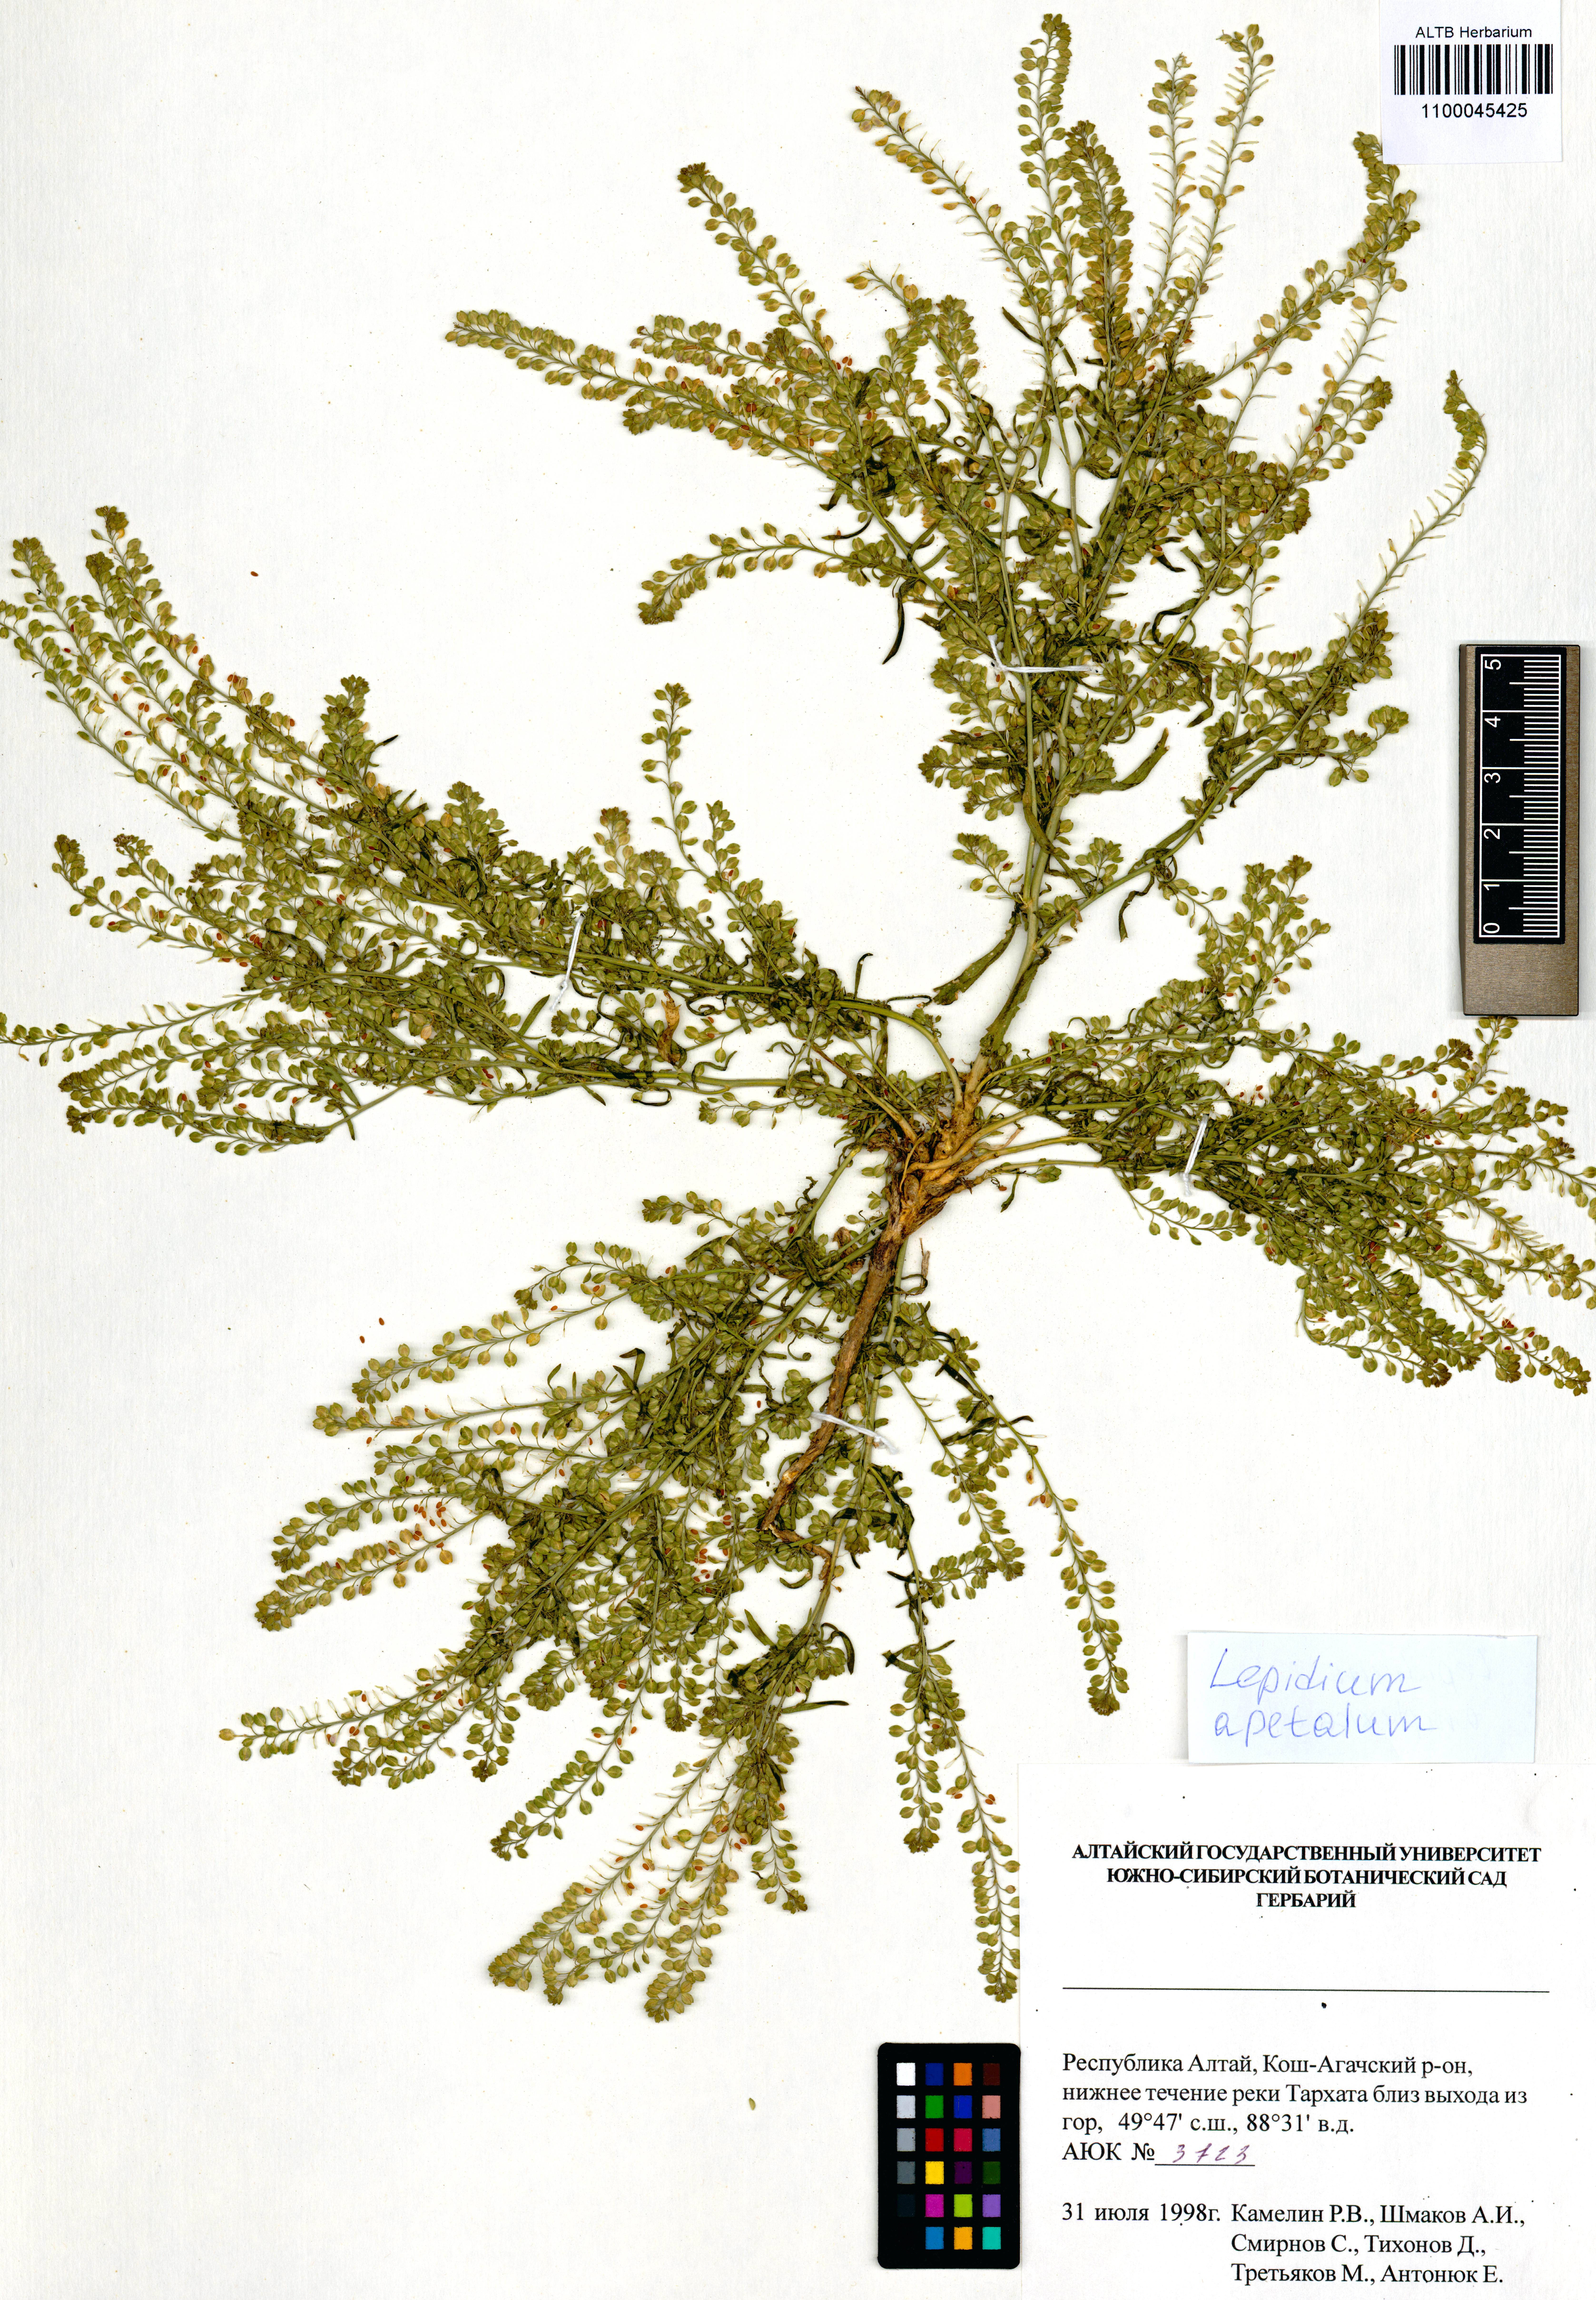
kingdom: Plantae
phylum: Tracheophyta
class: Magnoliopsida
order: Brassicales
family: Brassicaceae
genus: Lepidium
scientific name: Lepidium apetalum
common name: Pepperweed
